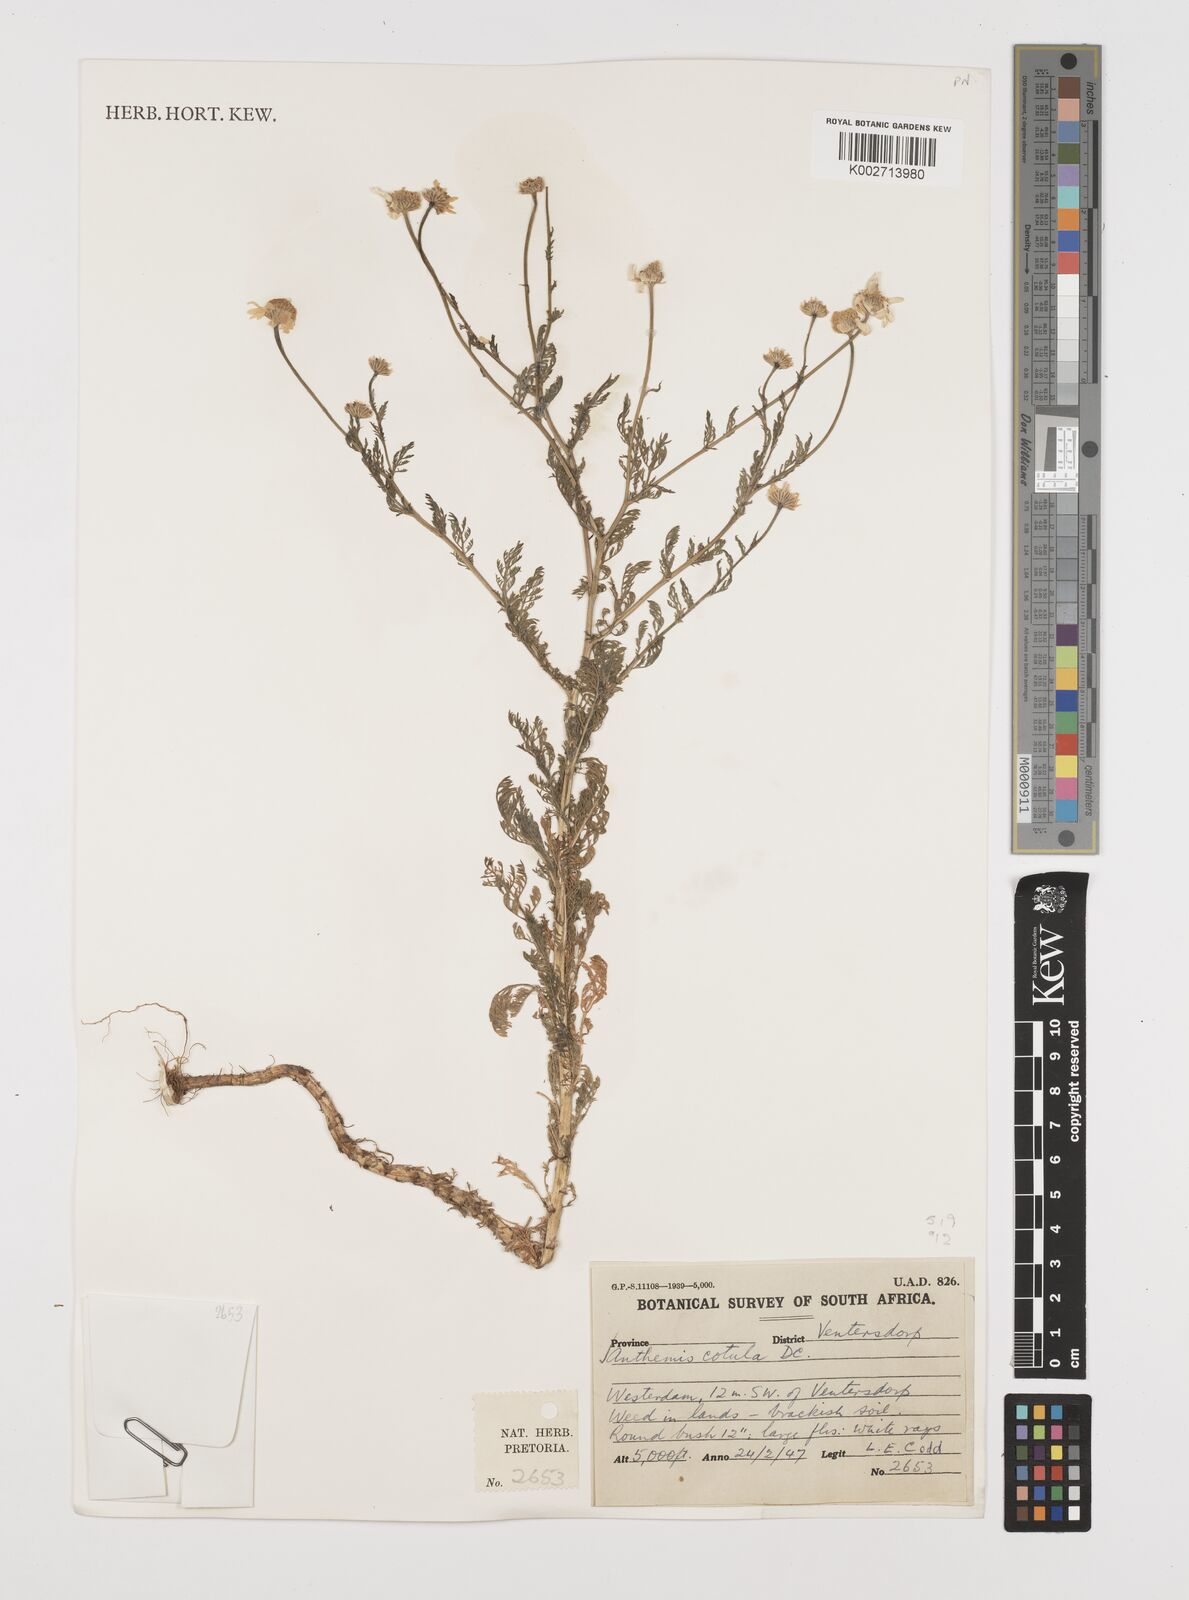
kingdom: Plantae
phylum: Tracheophyta
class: Magnoliopsida
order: Asterales
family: Asteraceae
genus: Anthemis
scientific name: Anthemis cotula
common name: Stinking chamomile
